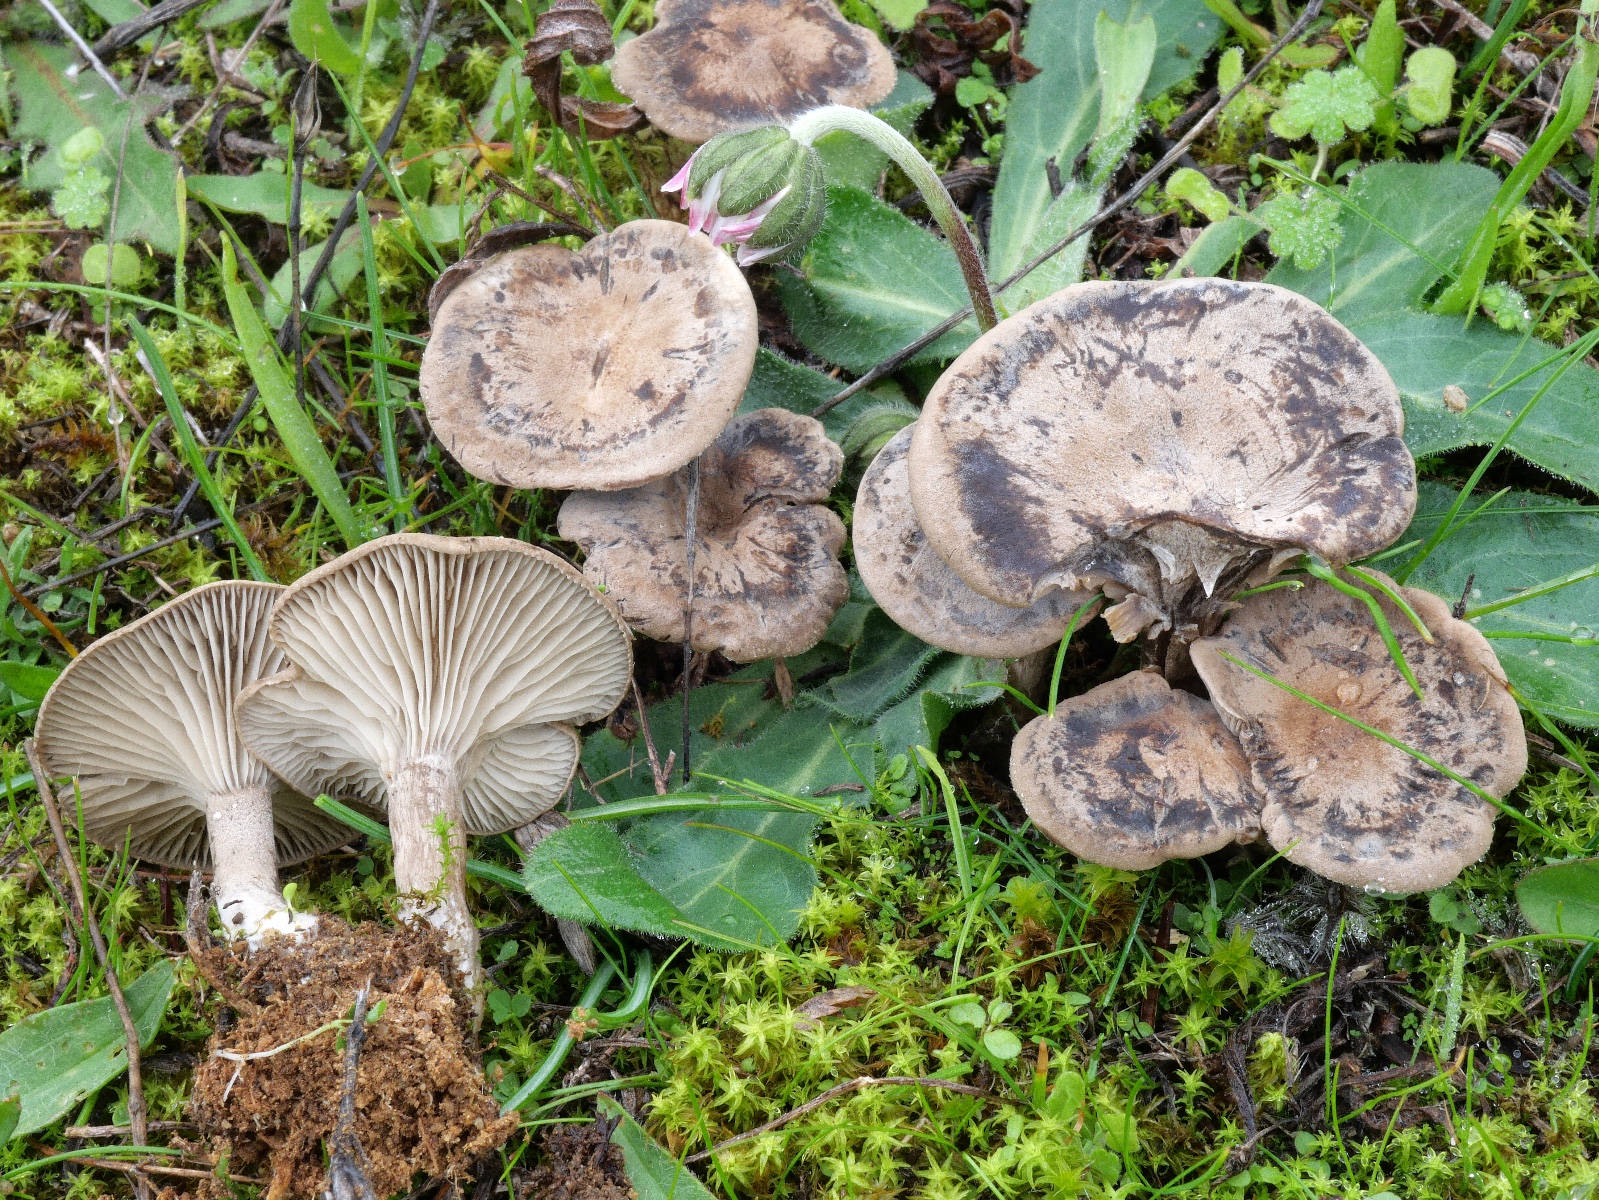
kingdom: Fungi
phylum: Basidiomycota
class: Agaricomycetes
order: Agaricales
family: Tricholomataceae
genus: Clitocybe
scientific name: Clitocybe
